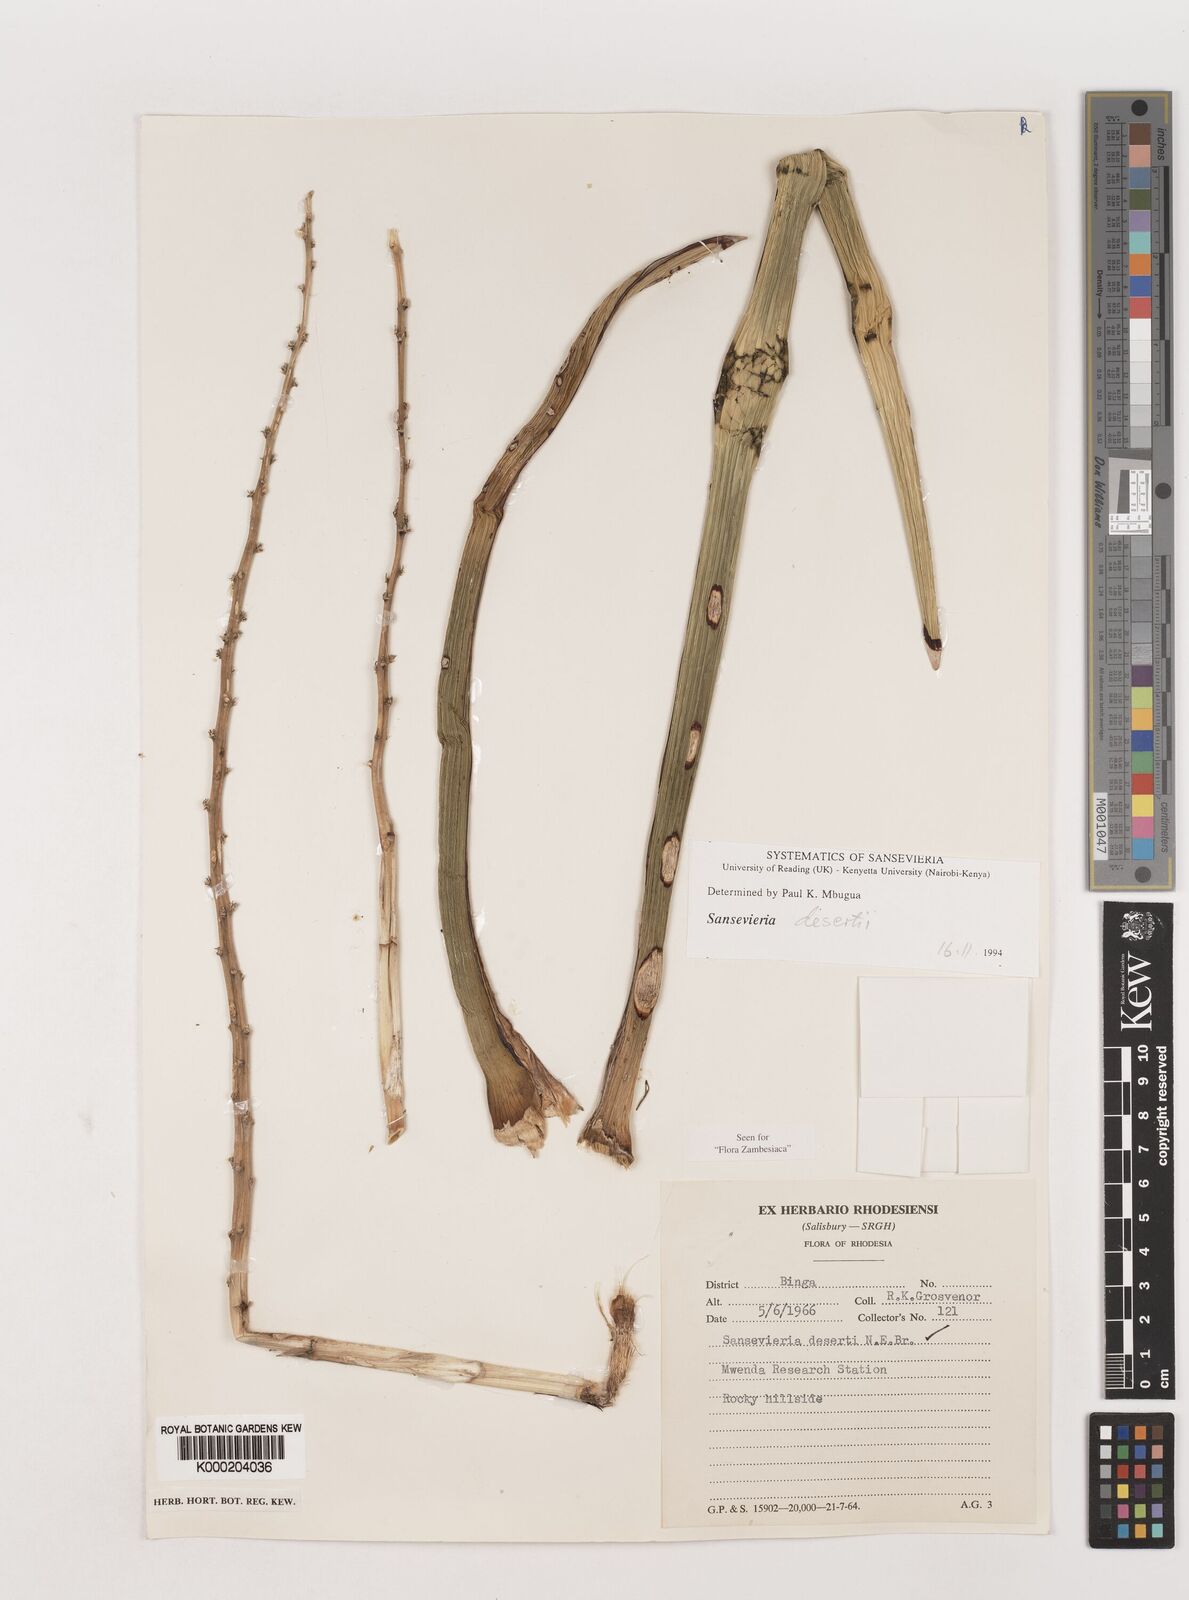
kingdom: Plantae
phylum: Tracheophyta
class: Liliopsida
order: Asparagales
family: Asparagaceae
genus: Dracaena
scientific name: Dracaena pearsonii
